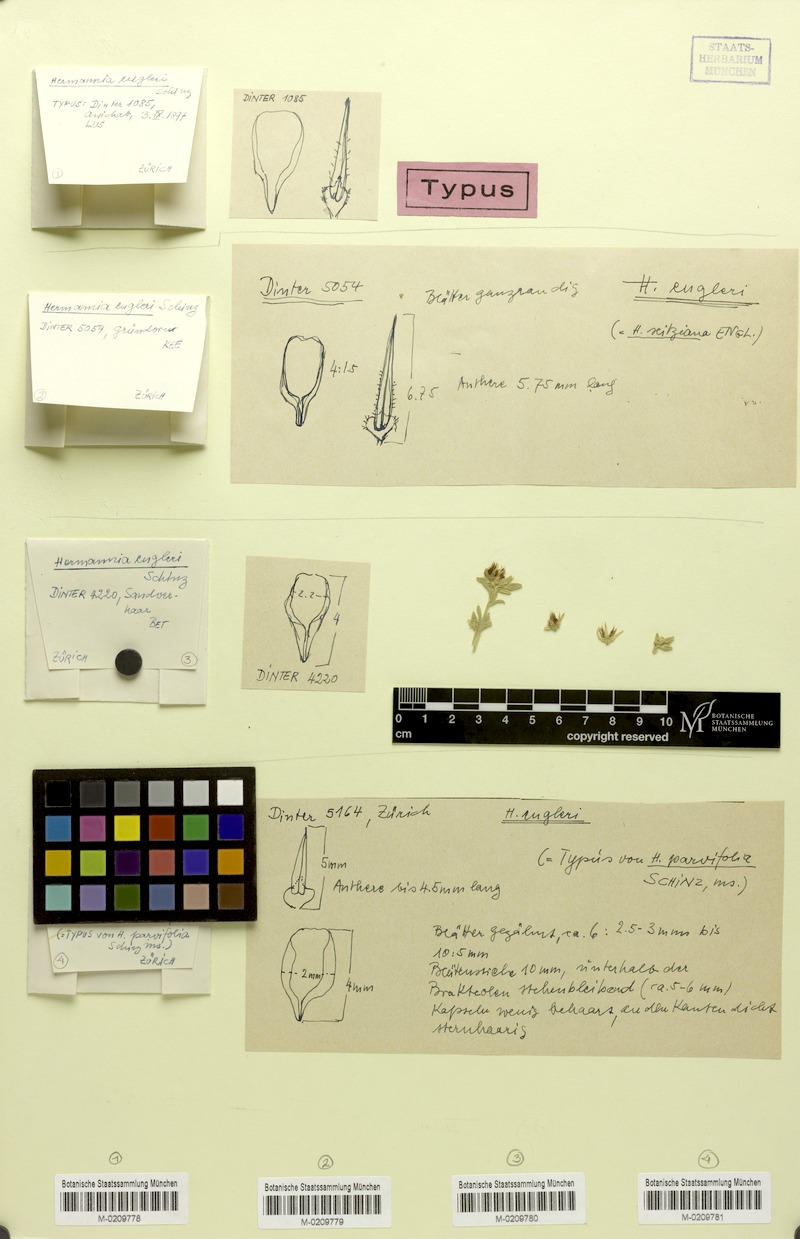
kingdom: Plantae
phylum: Tracheophyta
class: Magnoliopsida
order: Malvales
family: Malvaceae
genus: Hermannia
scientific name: Hermannia engleri
